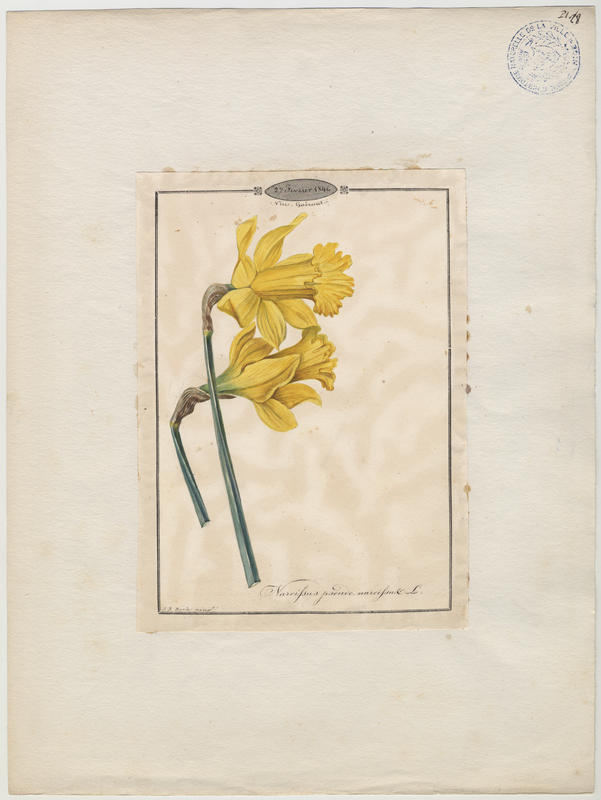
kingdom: Plantae
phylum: Tracheophyta
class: Liliopsida
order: Asparagales
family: Amaryllidaceae
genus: Narcissus
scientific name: Narcissus pseudonarcissus
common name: Daffodil
